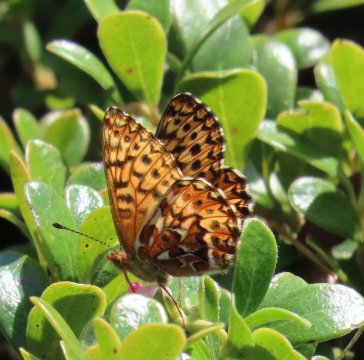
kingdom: Animalia
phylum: Arthropoda
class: Insecta
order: Lepidoptera
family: Nymphalidae
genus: Boloria
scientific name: Boloria freija
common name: Freija Fritillary
